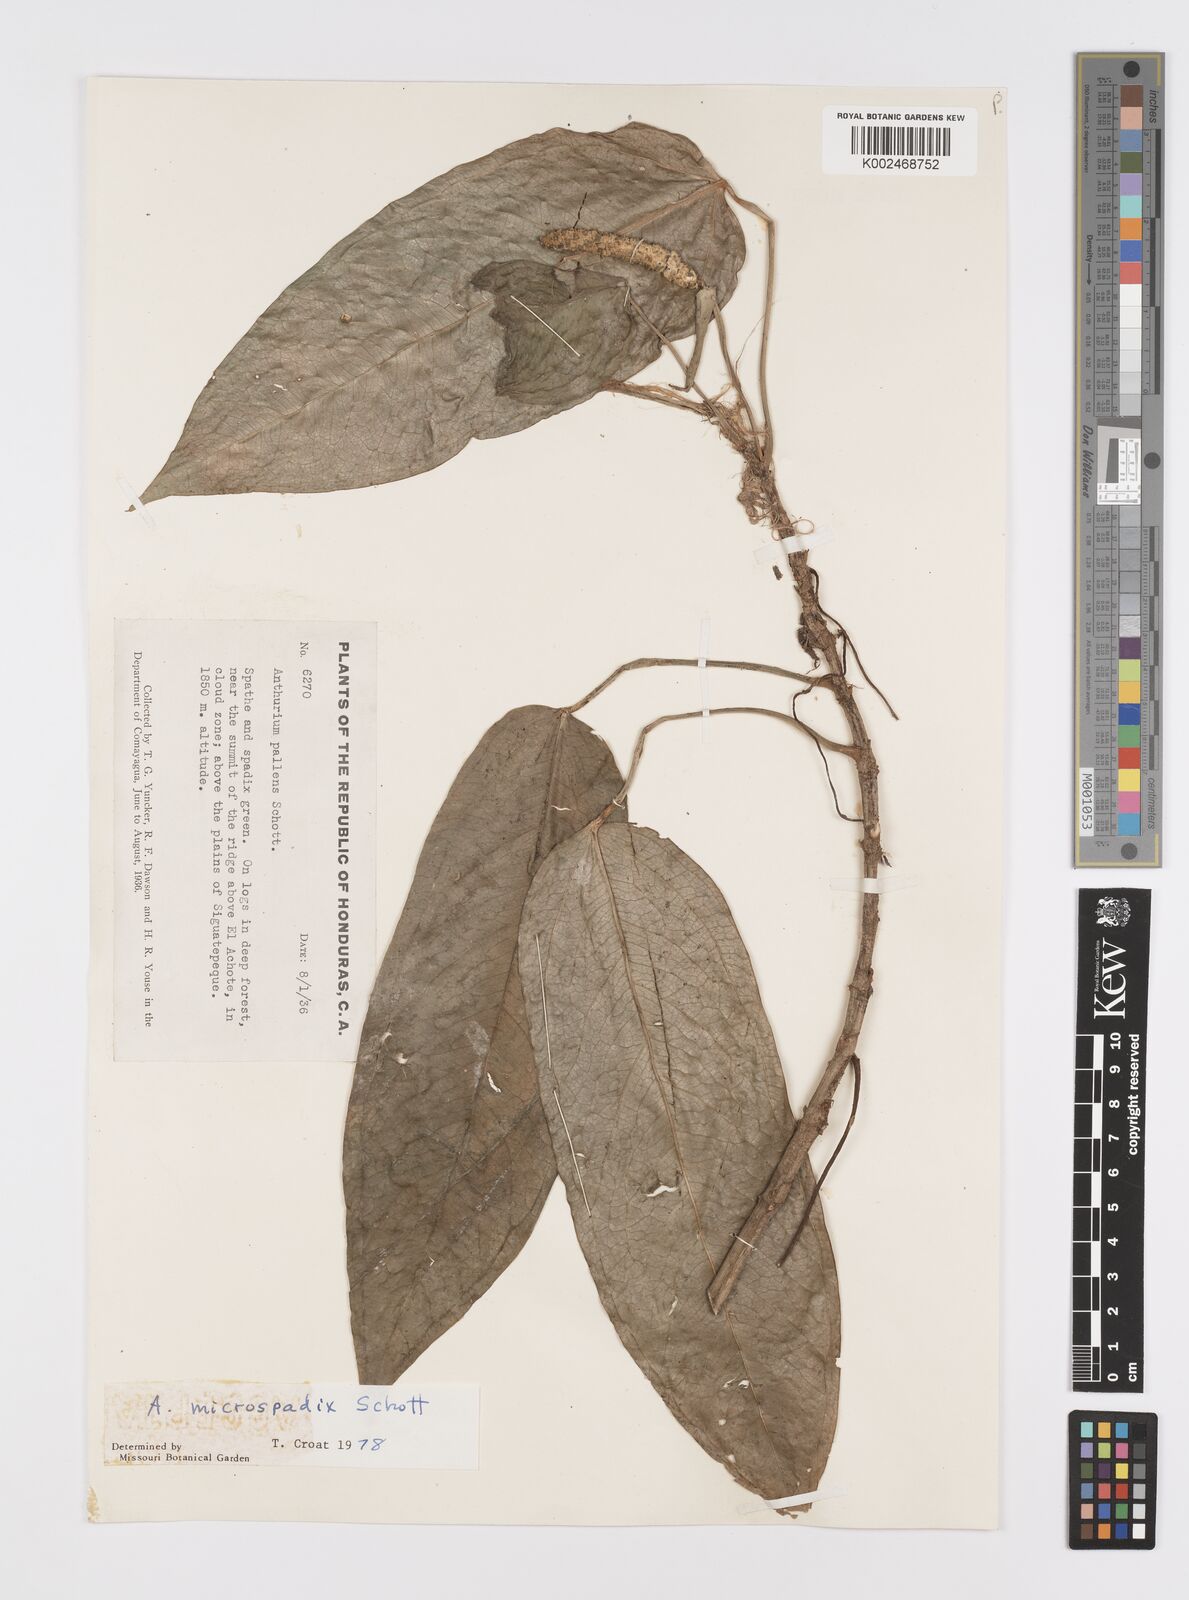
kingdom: Plantae
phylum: Tracheophyta
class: Liliopsida
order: Alismatales
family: Araceae
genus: Anthurium
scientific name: Anthurium microspadix
